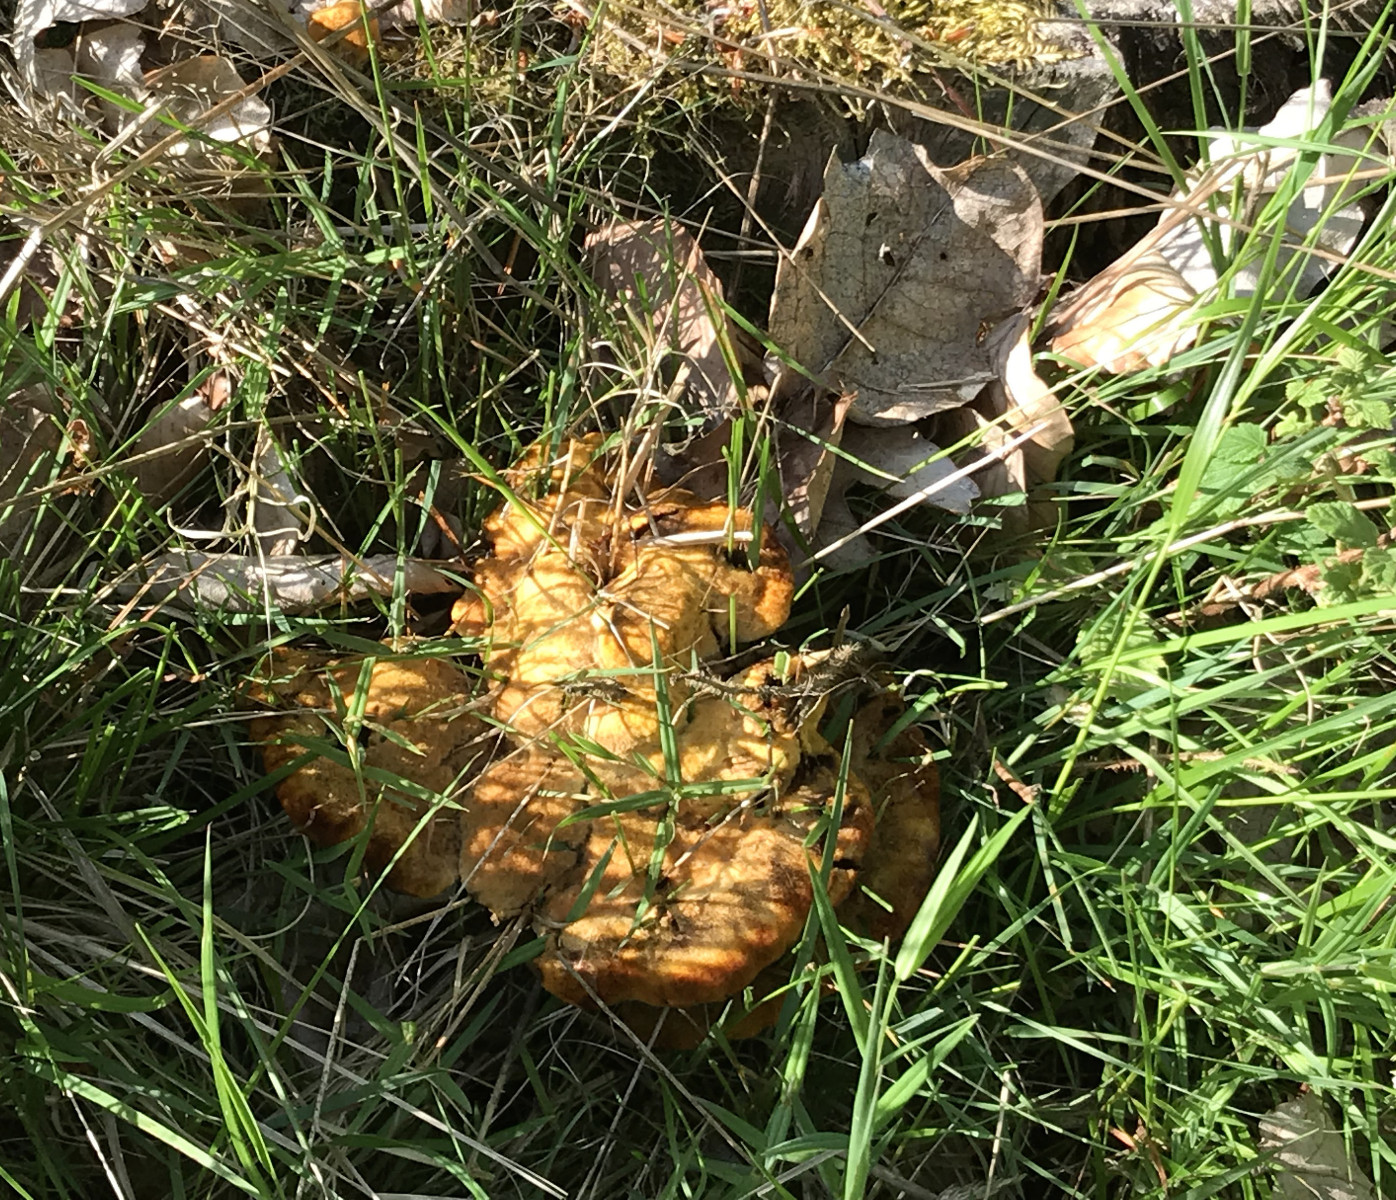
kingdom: Fungi
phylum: Basidiomycota
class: Agaricomycetes
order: Polyporales
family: Laetiporaceae
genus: Phaeolus
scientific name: Phaeolus schweinitzii
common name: brunporesvamp
